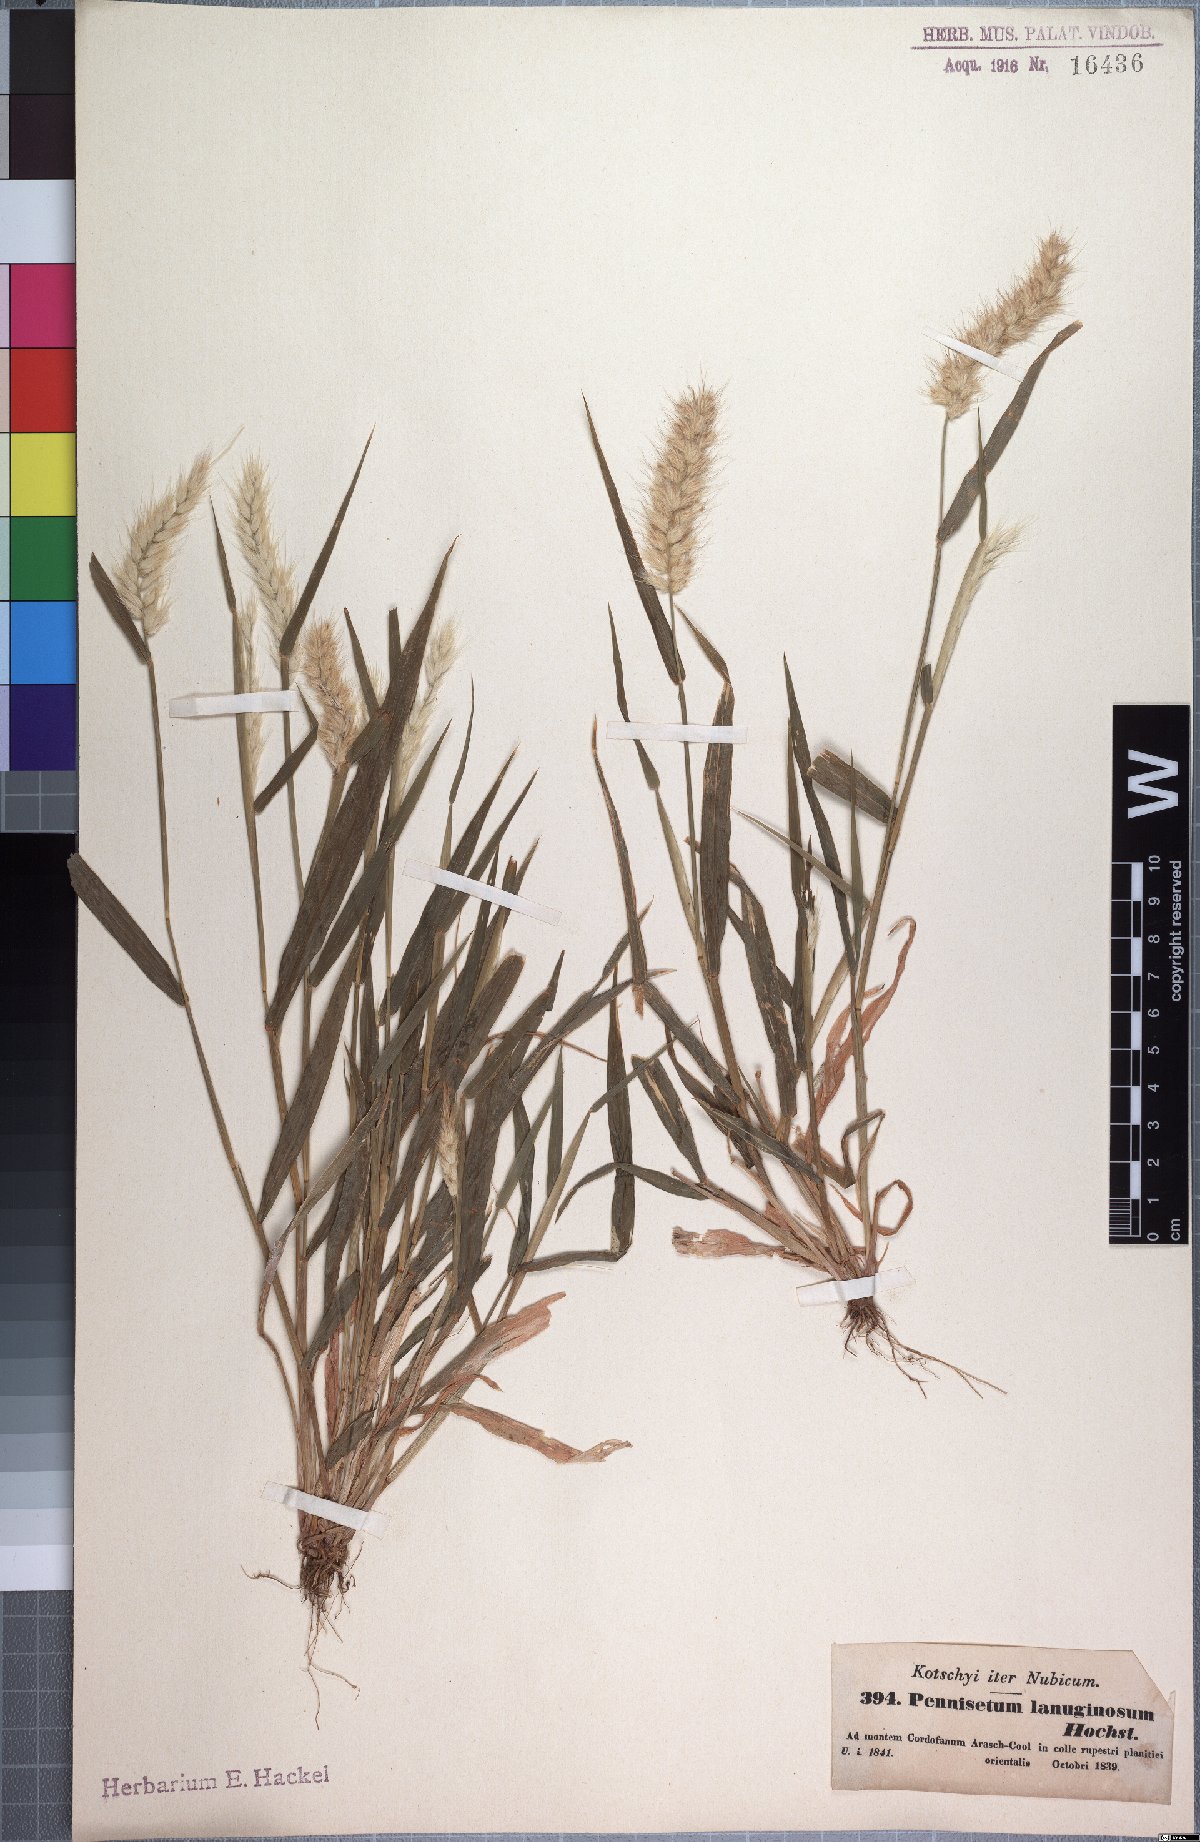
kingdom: Plantae
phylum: Tracheophyta
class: Liliopsida
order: Poales
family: Poaceae
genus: Cenchrus
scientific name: Cenchrus pedicellatus
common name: Hairy fountain grass
